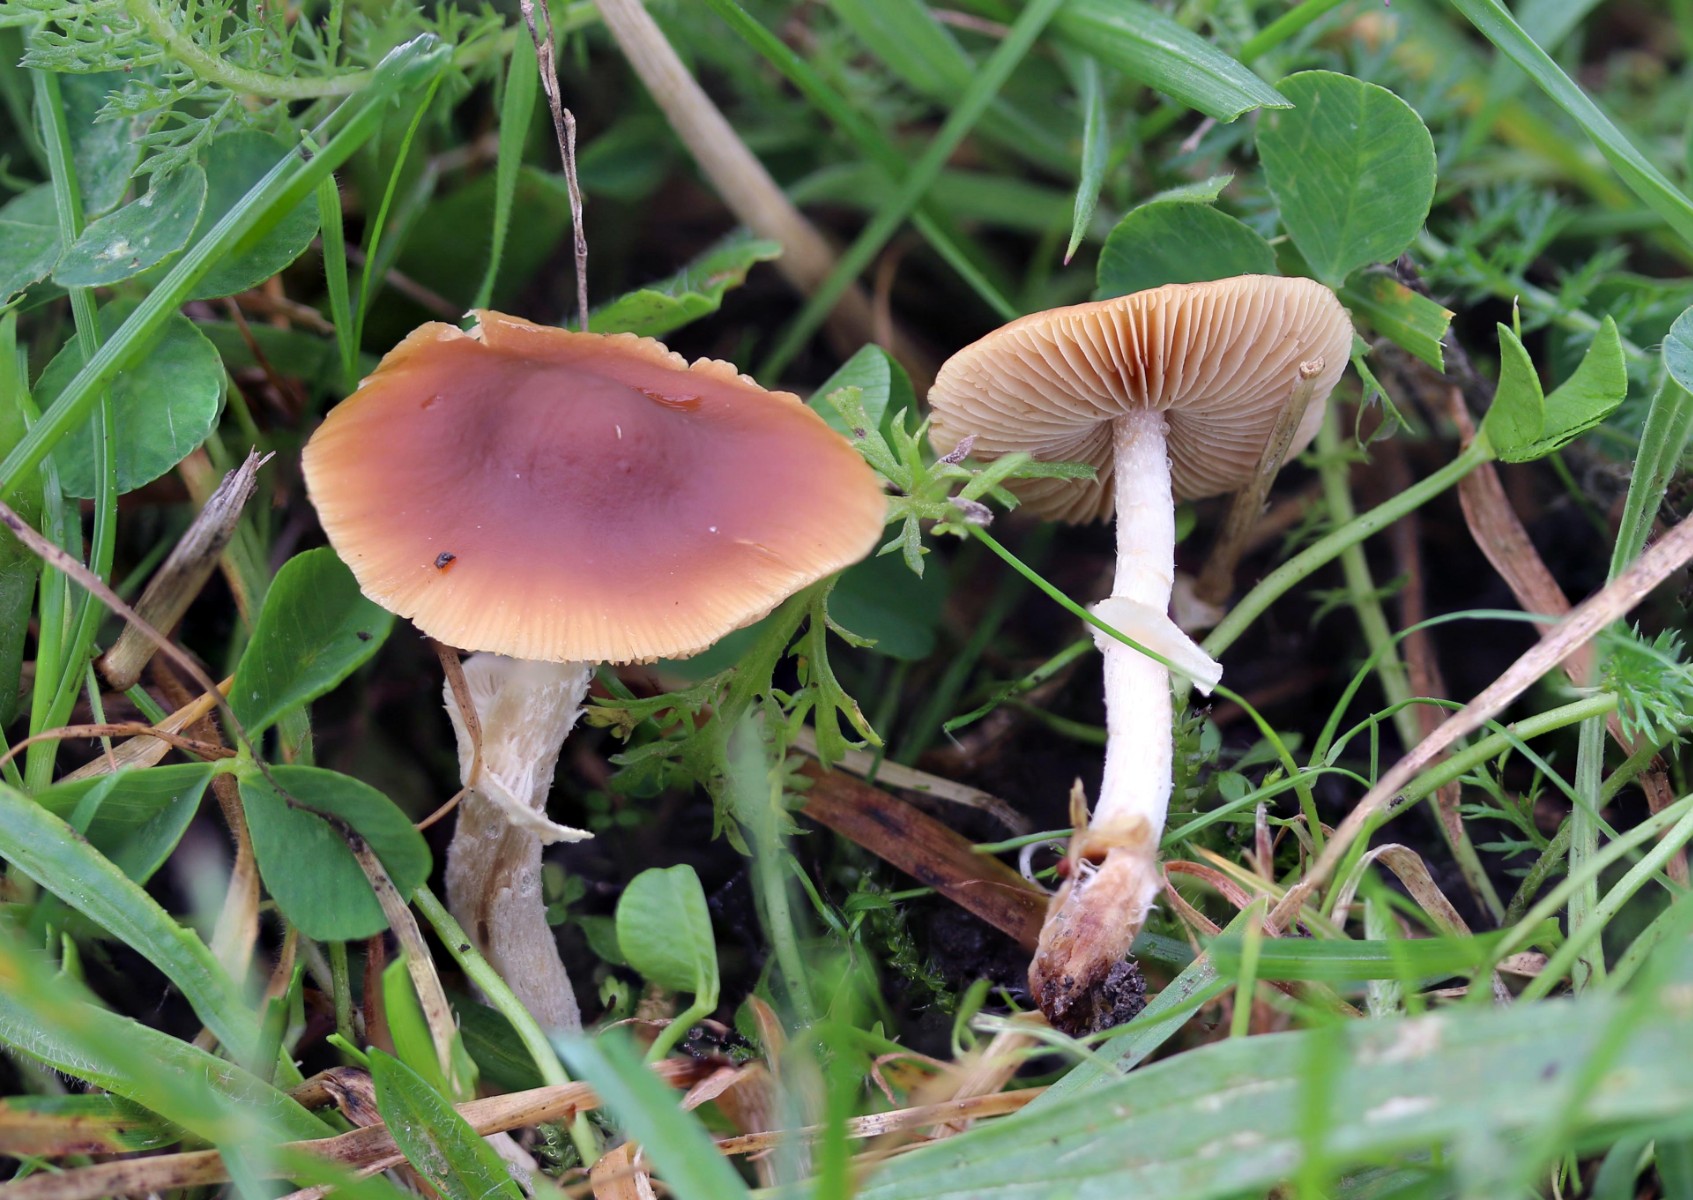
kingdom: Fungi
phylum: Basidiomycota
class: Agaricomycetes
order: Agaricales
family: Bolbitiaceae
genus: Conocybe
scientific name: Conocybe arrhenii
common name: ring-dansehat
